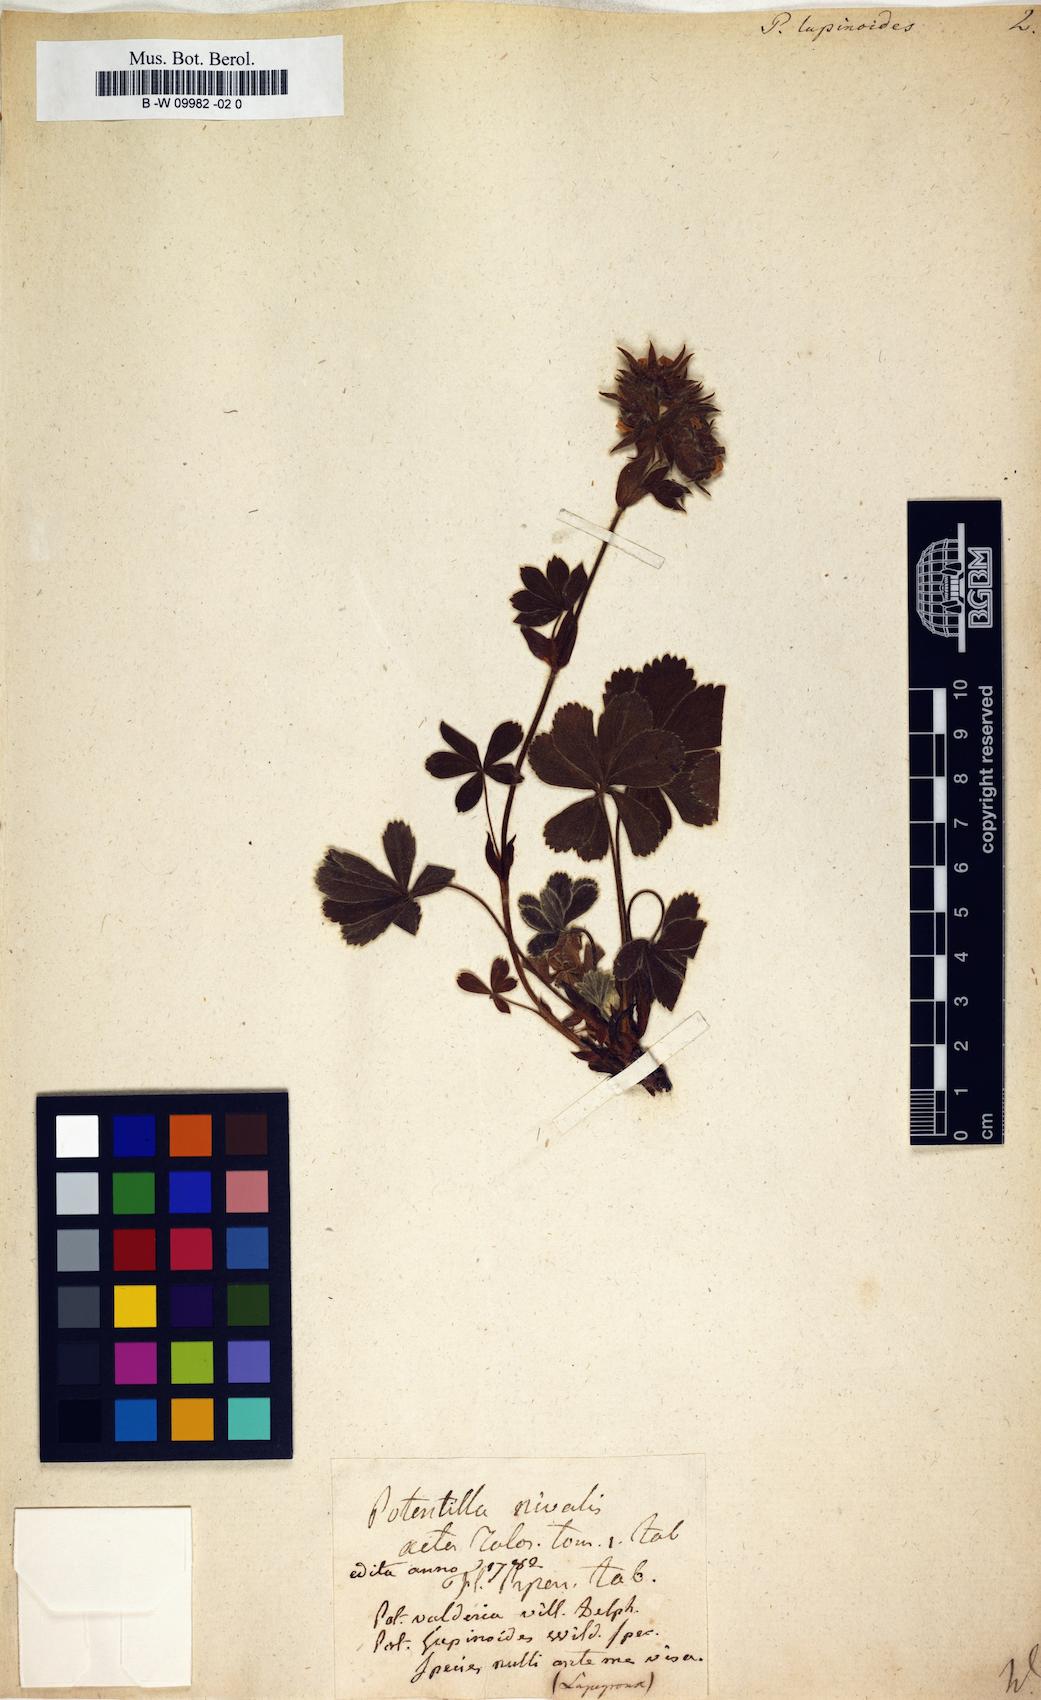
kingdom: Plantae
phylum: Tracheophyta
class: Magnoliopsida
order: Rosales
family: Rosaceae
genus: Potentilla
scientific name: Potentilla nivalis
